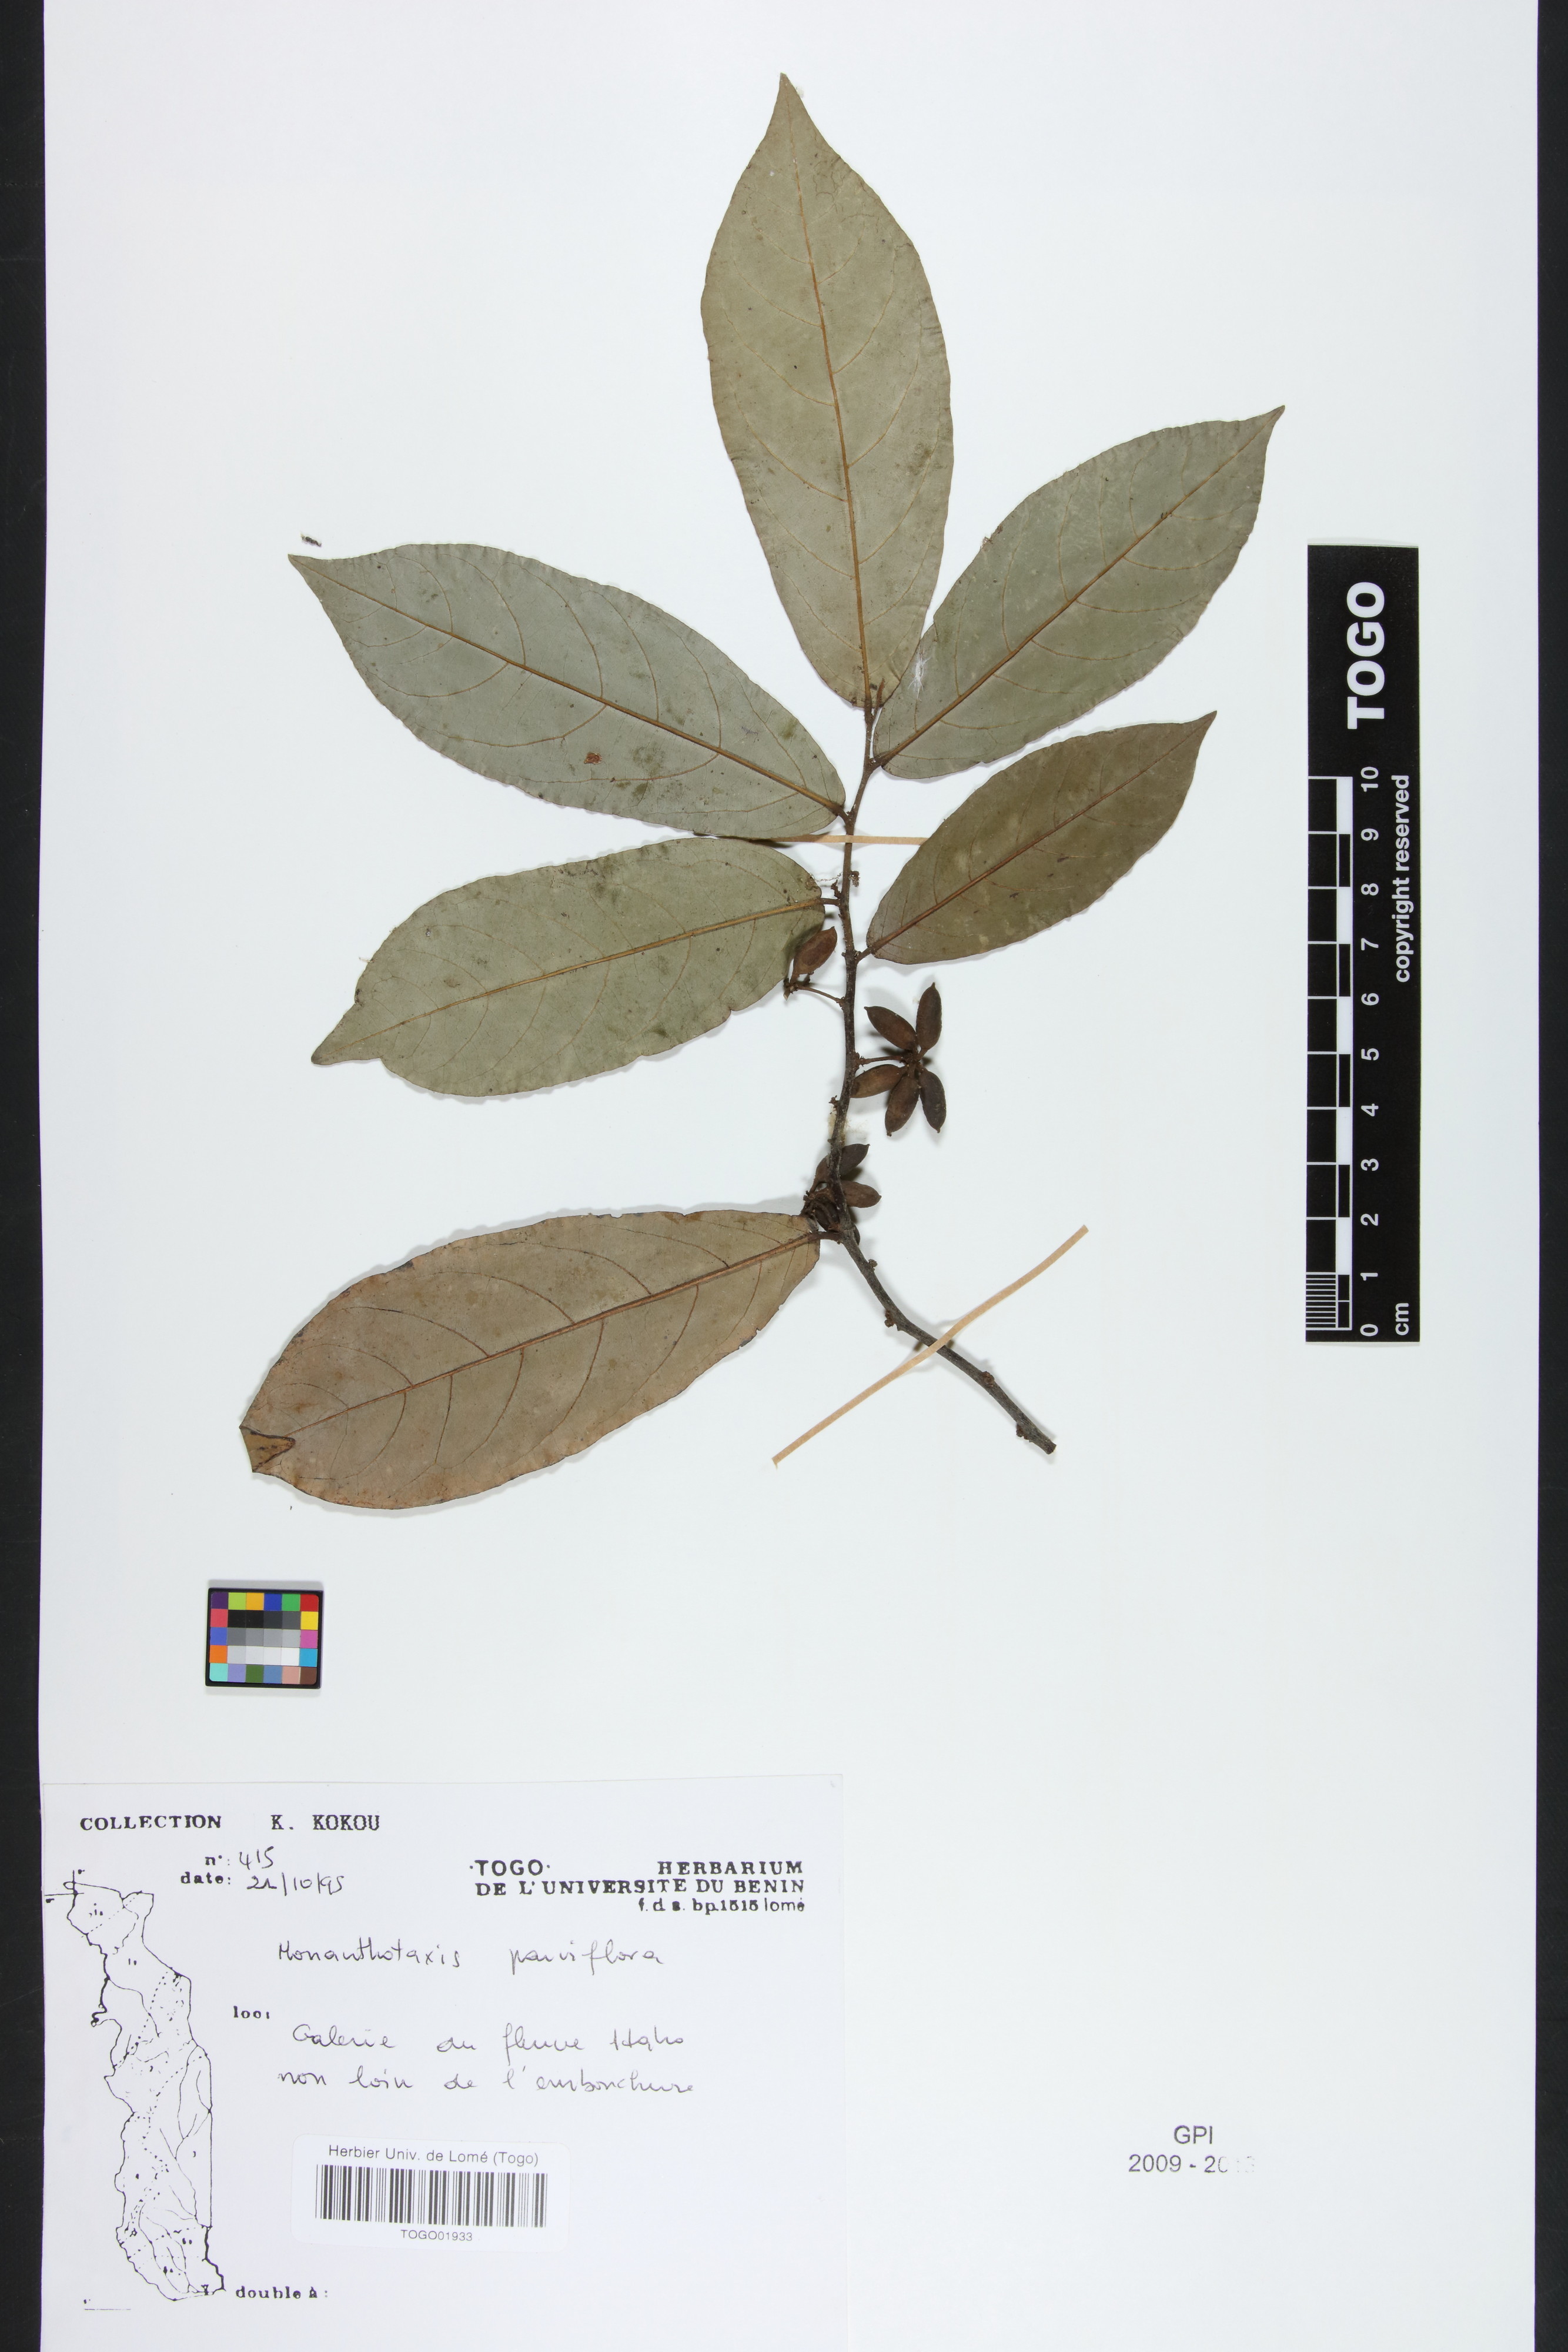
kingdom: Plantae
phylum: Tracheophyta
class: Magnoliopsida
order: Magnoliales
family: Annonaceae
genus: Monanthotaxis
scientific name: Monanthotaxis parvifolia
